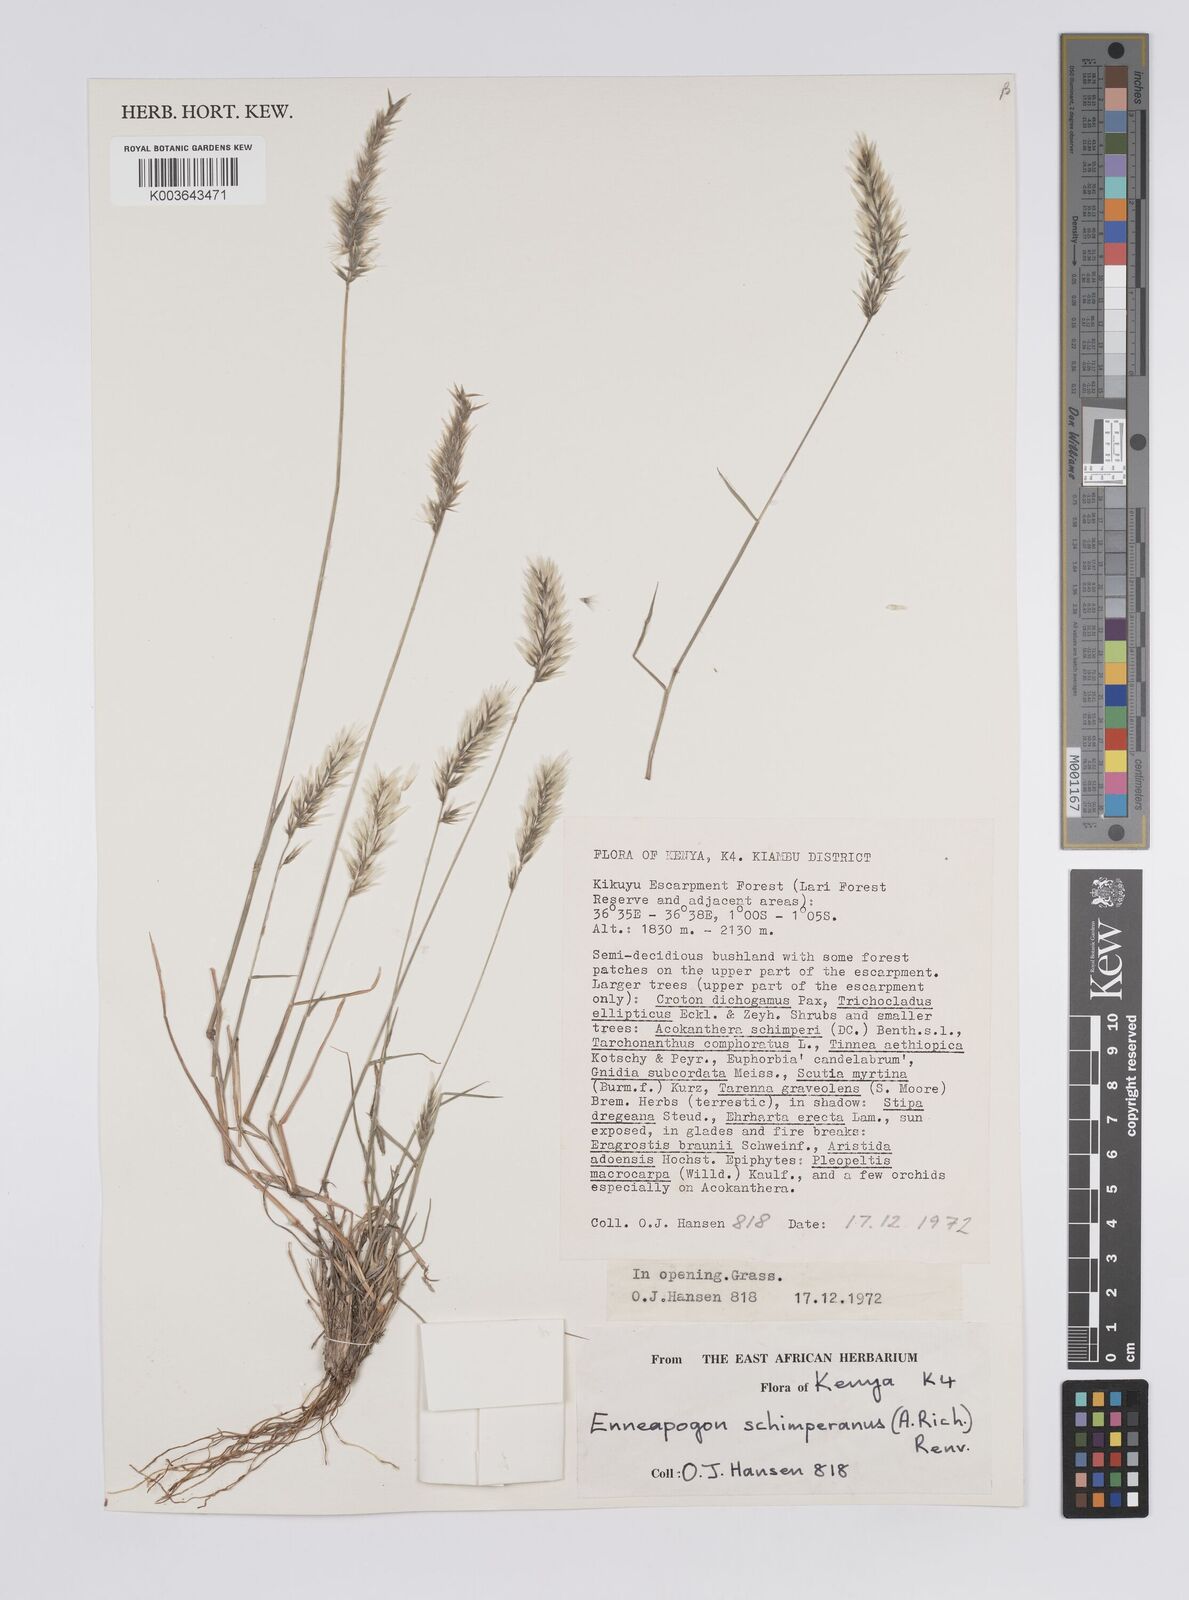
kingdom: Plantae
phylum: Tracheophyta
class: Liliopsida
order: Poales
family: Poaceae
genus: Enneapogon
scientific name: Enneapogon persicus
